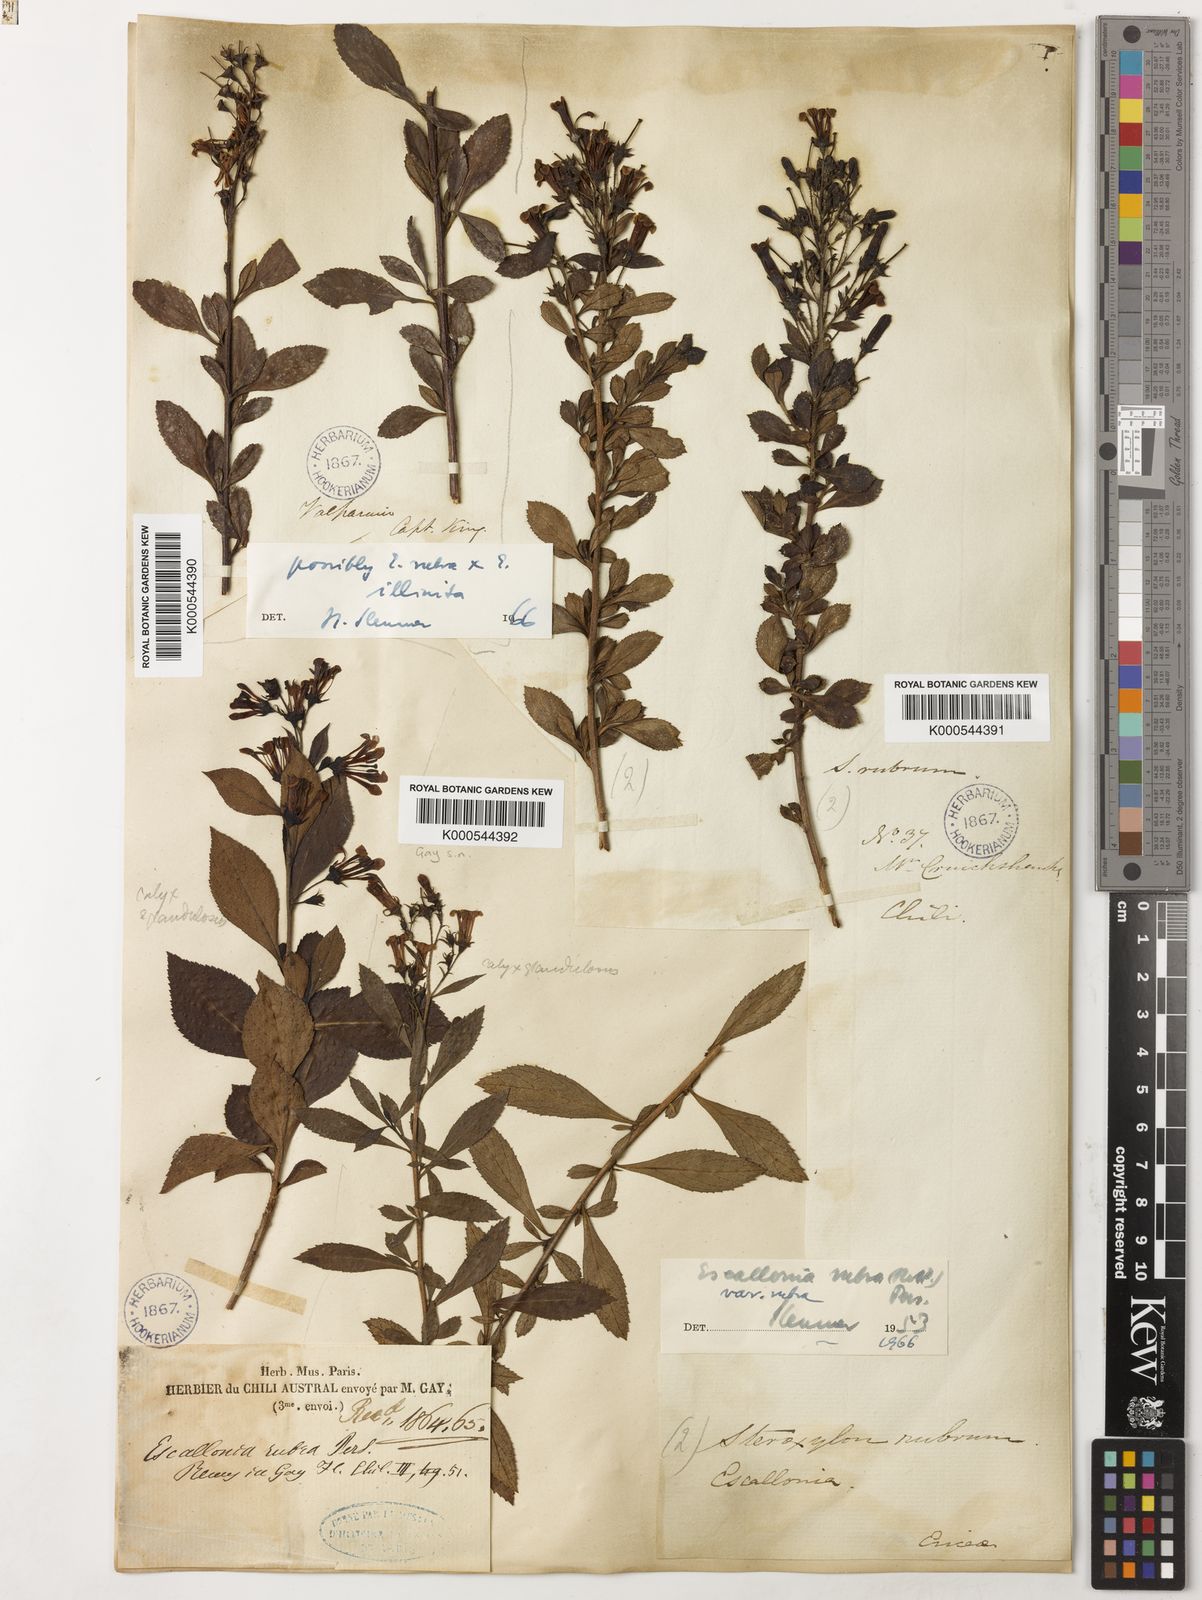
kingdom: Plantae
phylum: Tracheophyta
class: Magnoliopsida
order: Escalloniales
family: Escalloniaceae
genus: Escallonia
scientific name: Escallonia rubra
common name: Redclaws
